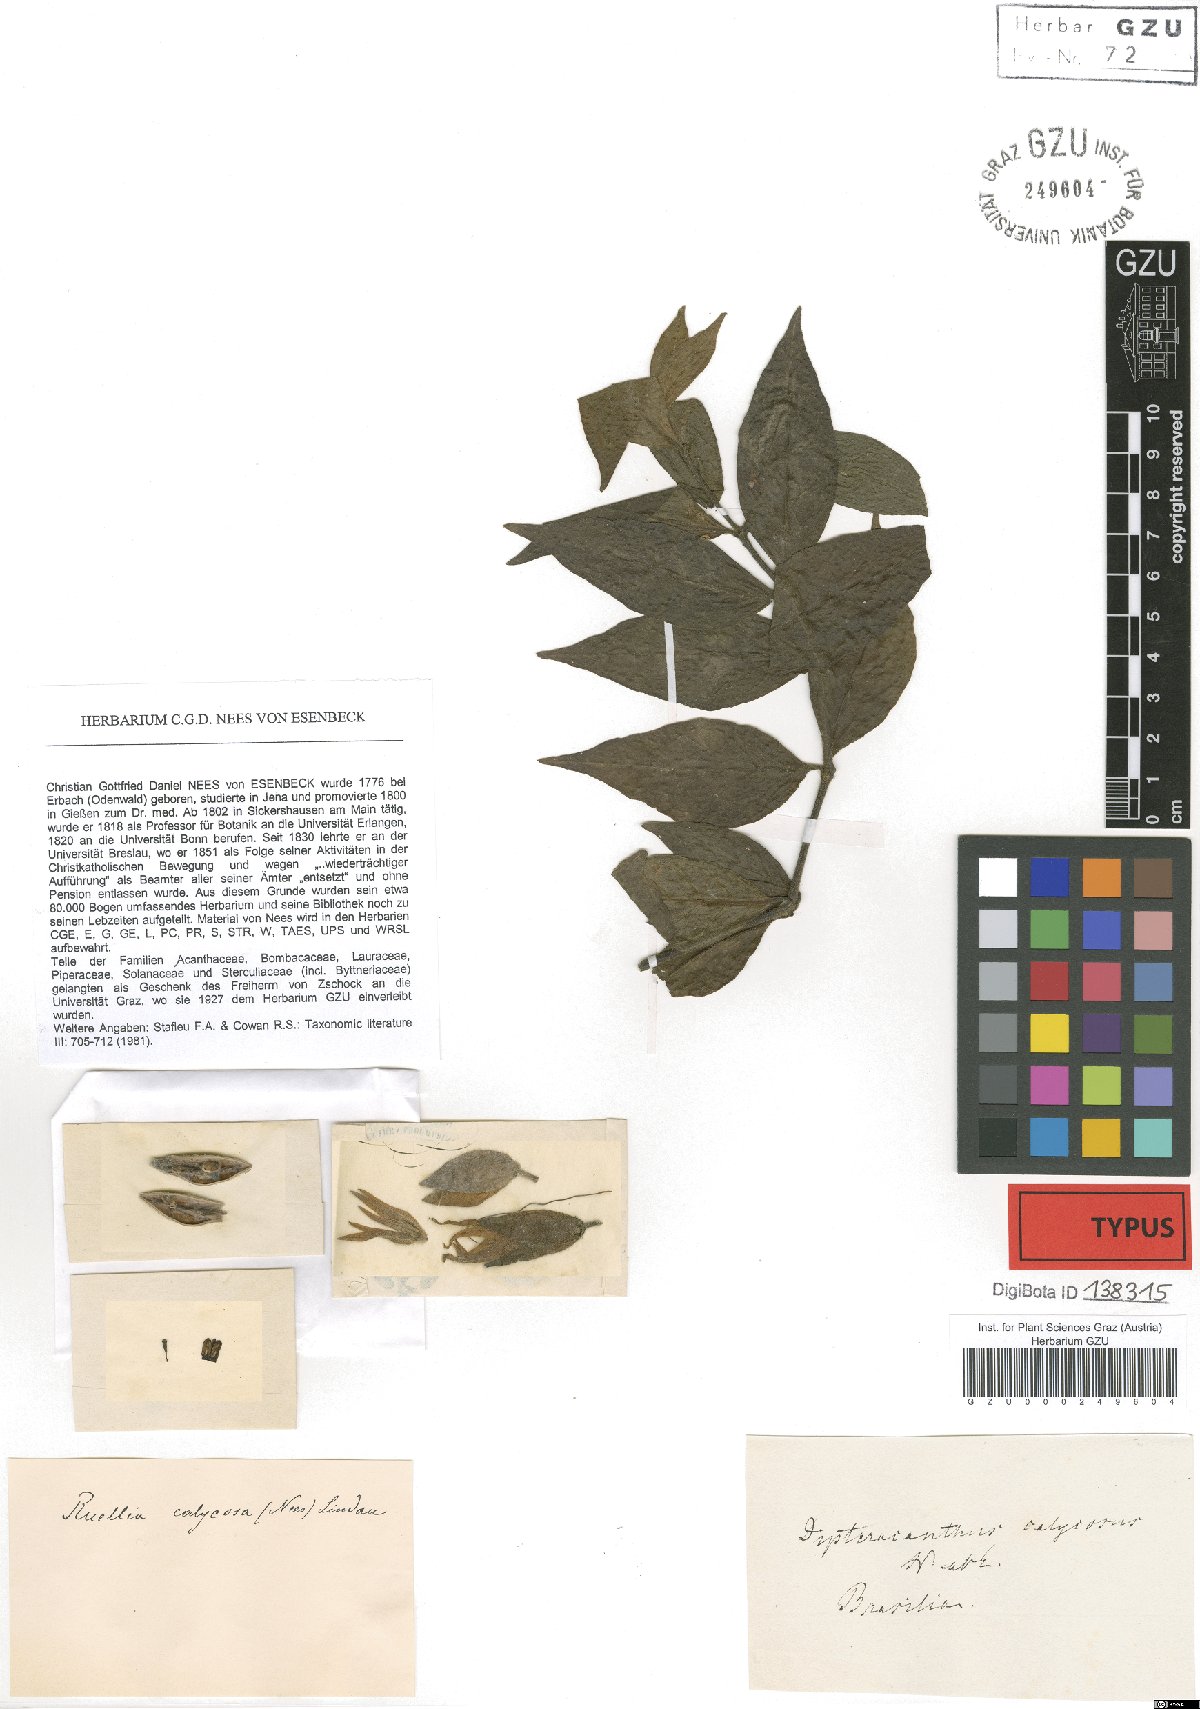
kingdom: Plantae
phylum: Tracheophyta
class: Magnoliopsida
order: Lamiales
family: Acanthaceae
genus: Ruellia
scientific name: Ruellia Dipteracanthus calycosus
